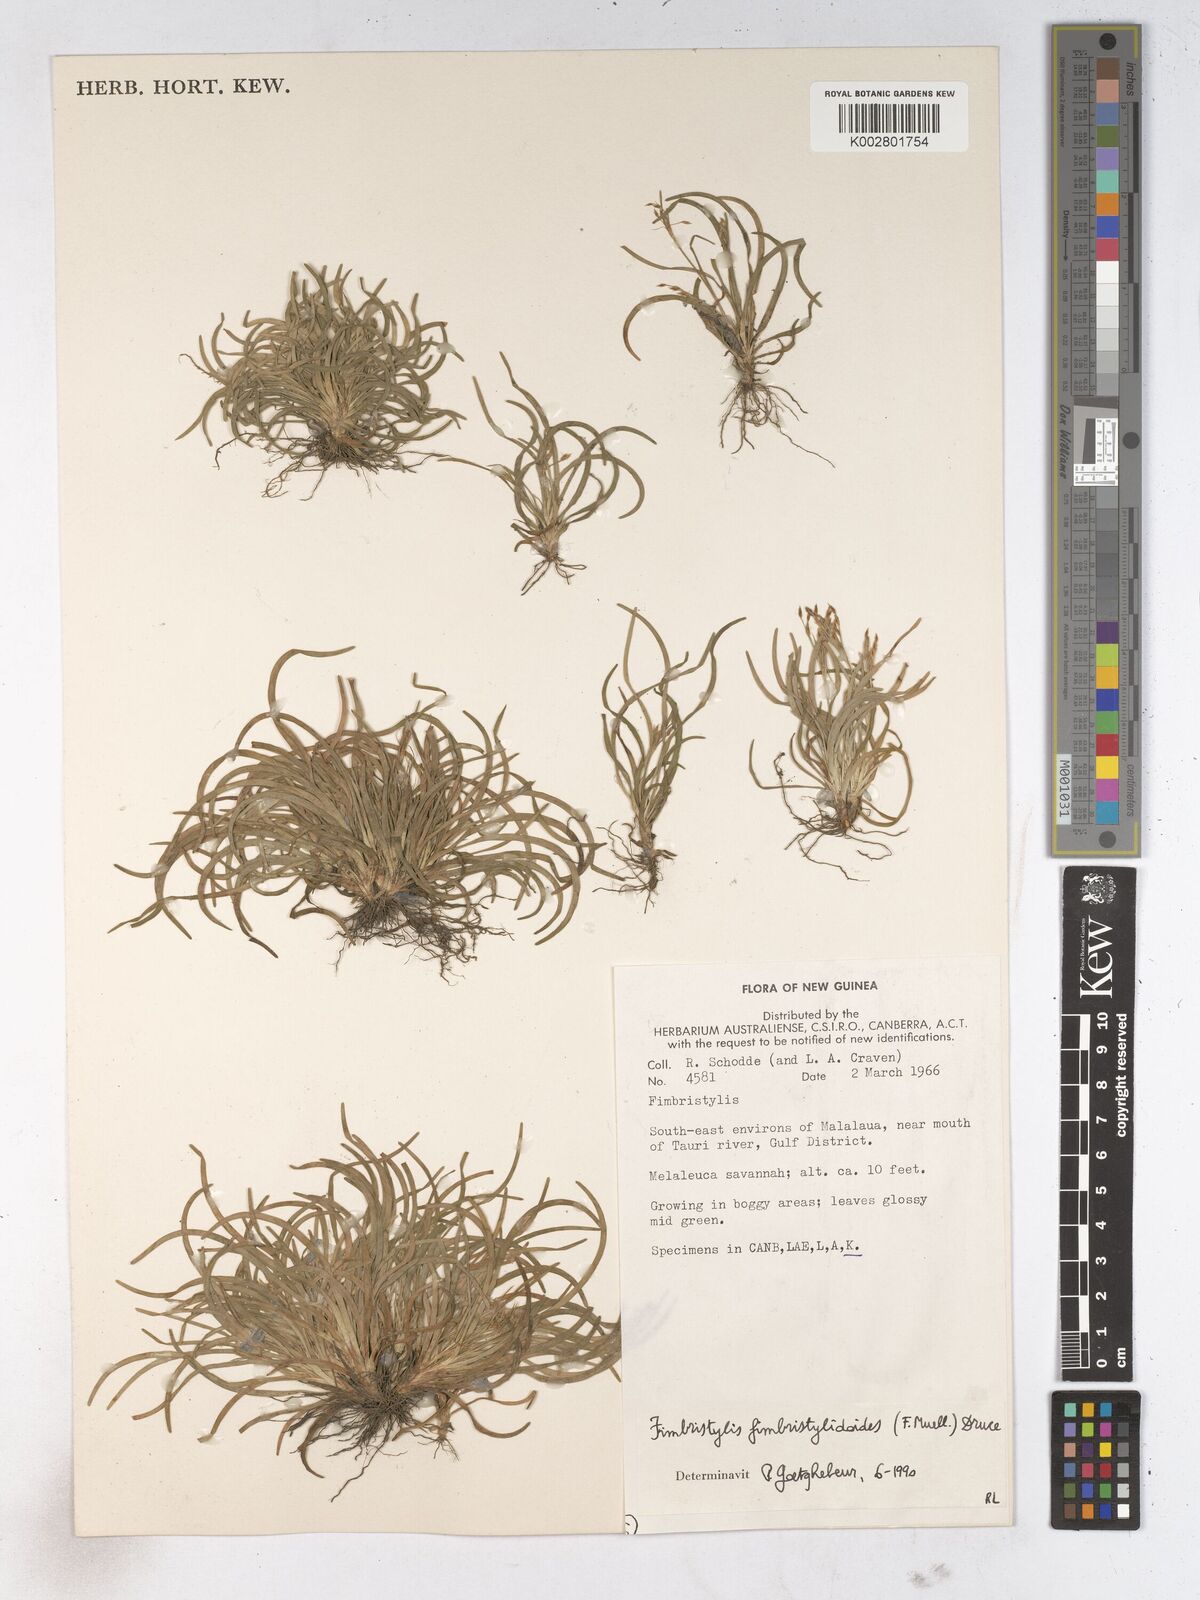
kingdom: Plantae
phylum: Tracheophyta
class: Liliopsida
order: Poales
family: Cyperaceae
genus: Fimbristylis
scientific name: Fimbristylis fimbristyloides
